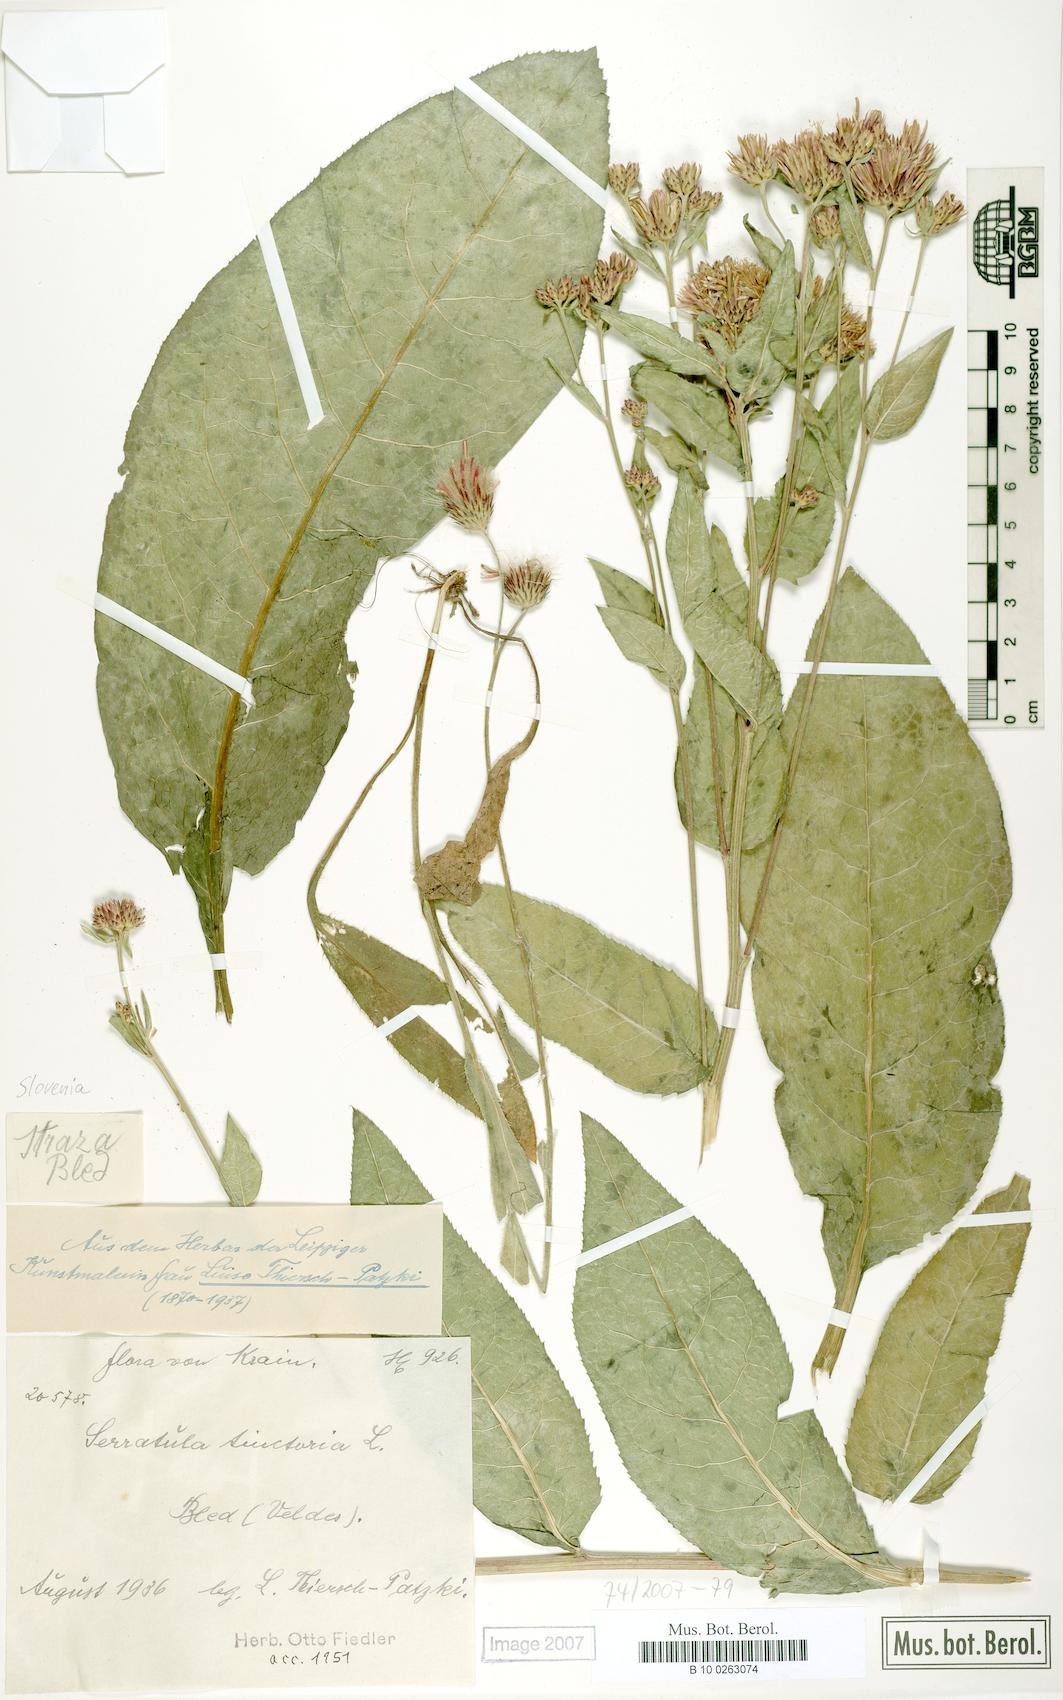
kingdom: Plantae
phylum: Tracheophyta
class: Magnoliopsida
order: Asterales
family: Asteraceae
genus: Serratula
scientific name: Serratula tinctoria
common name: Saw-wort
